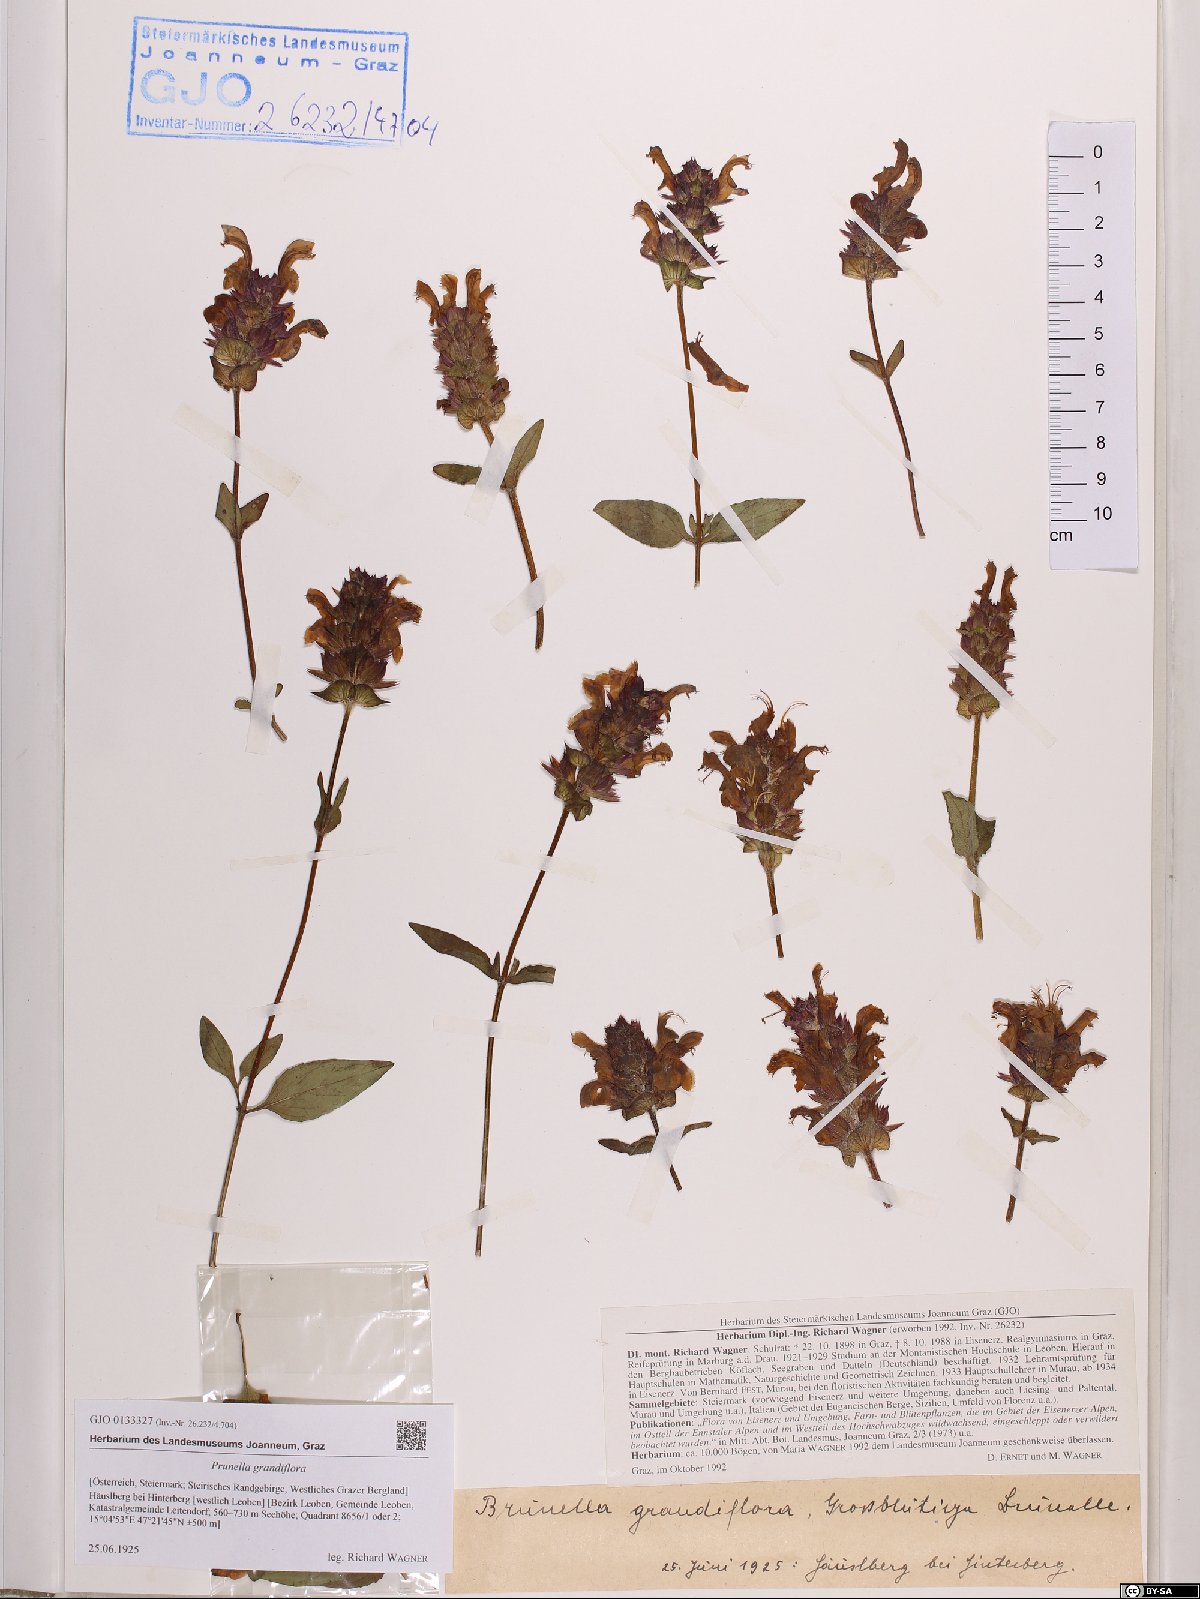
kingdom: Plantae
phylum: Tracheophyta
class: Magnoliopsida
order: Lamiales
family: Lamiaceae
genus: Prunella
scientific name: Prunella grandiflora
